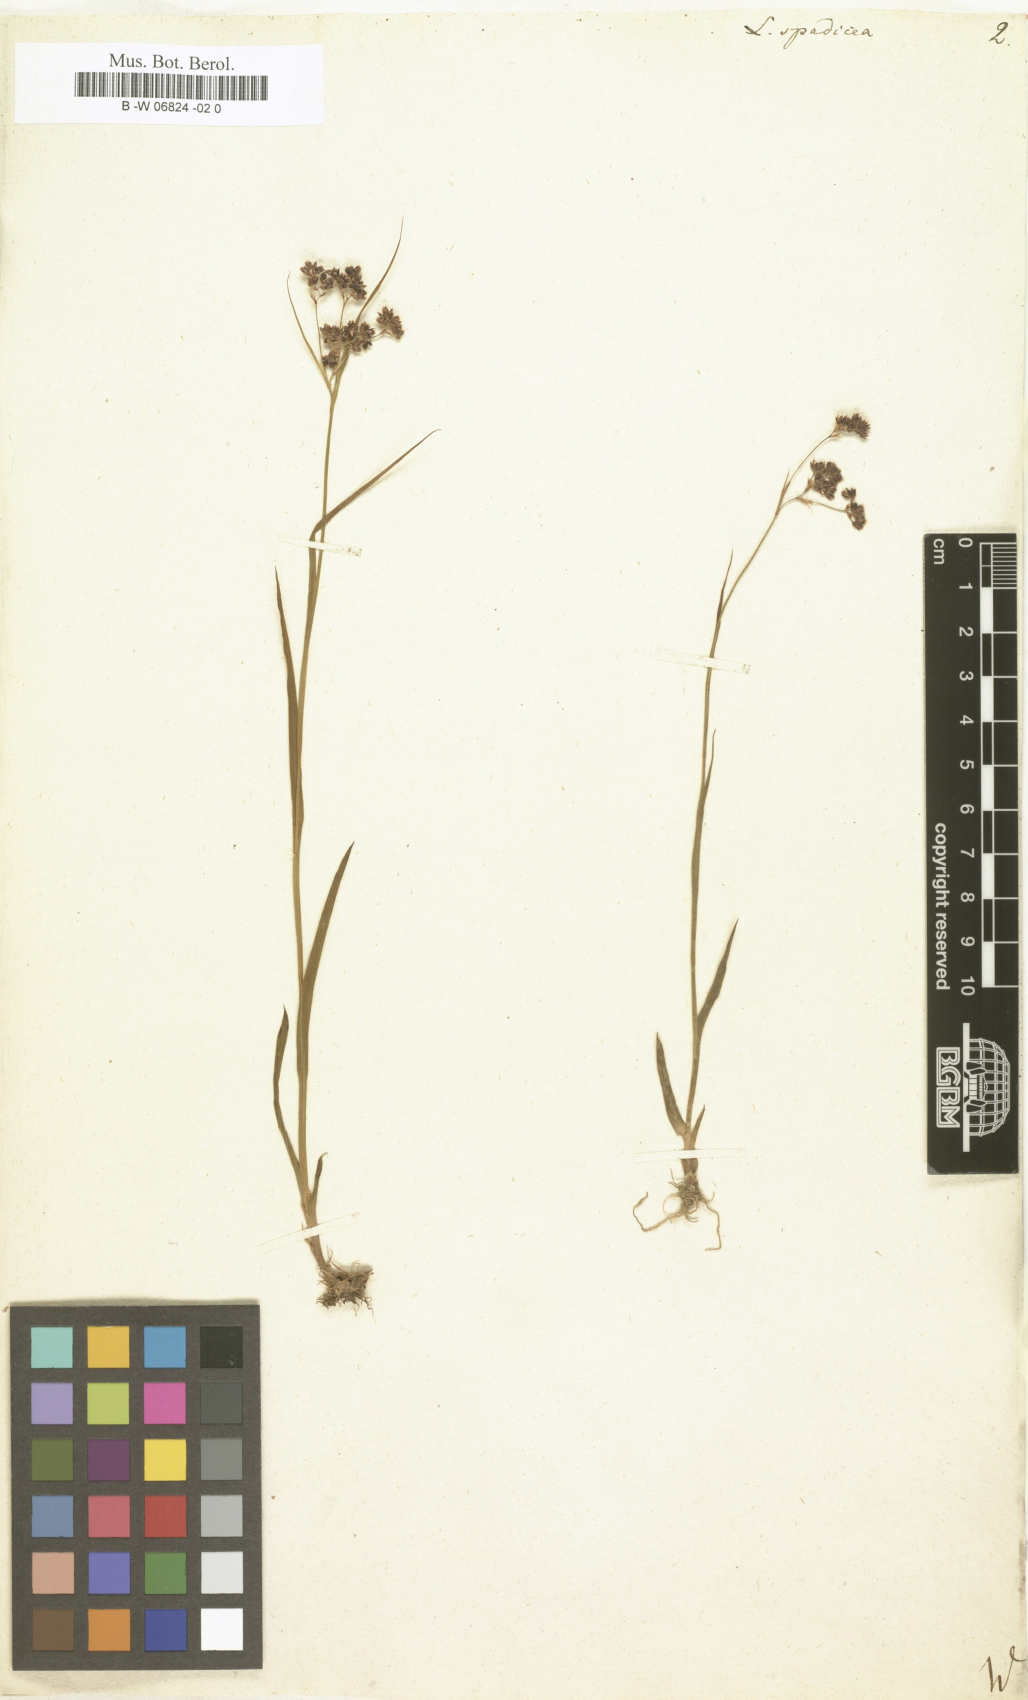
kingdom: Plantae
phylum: Tracheophyta
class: Liliopsida
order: Poales
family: Juncaceae
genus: Luzula
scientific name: Luzula
